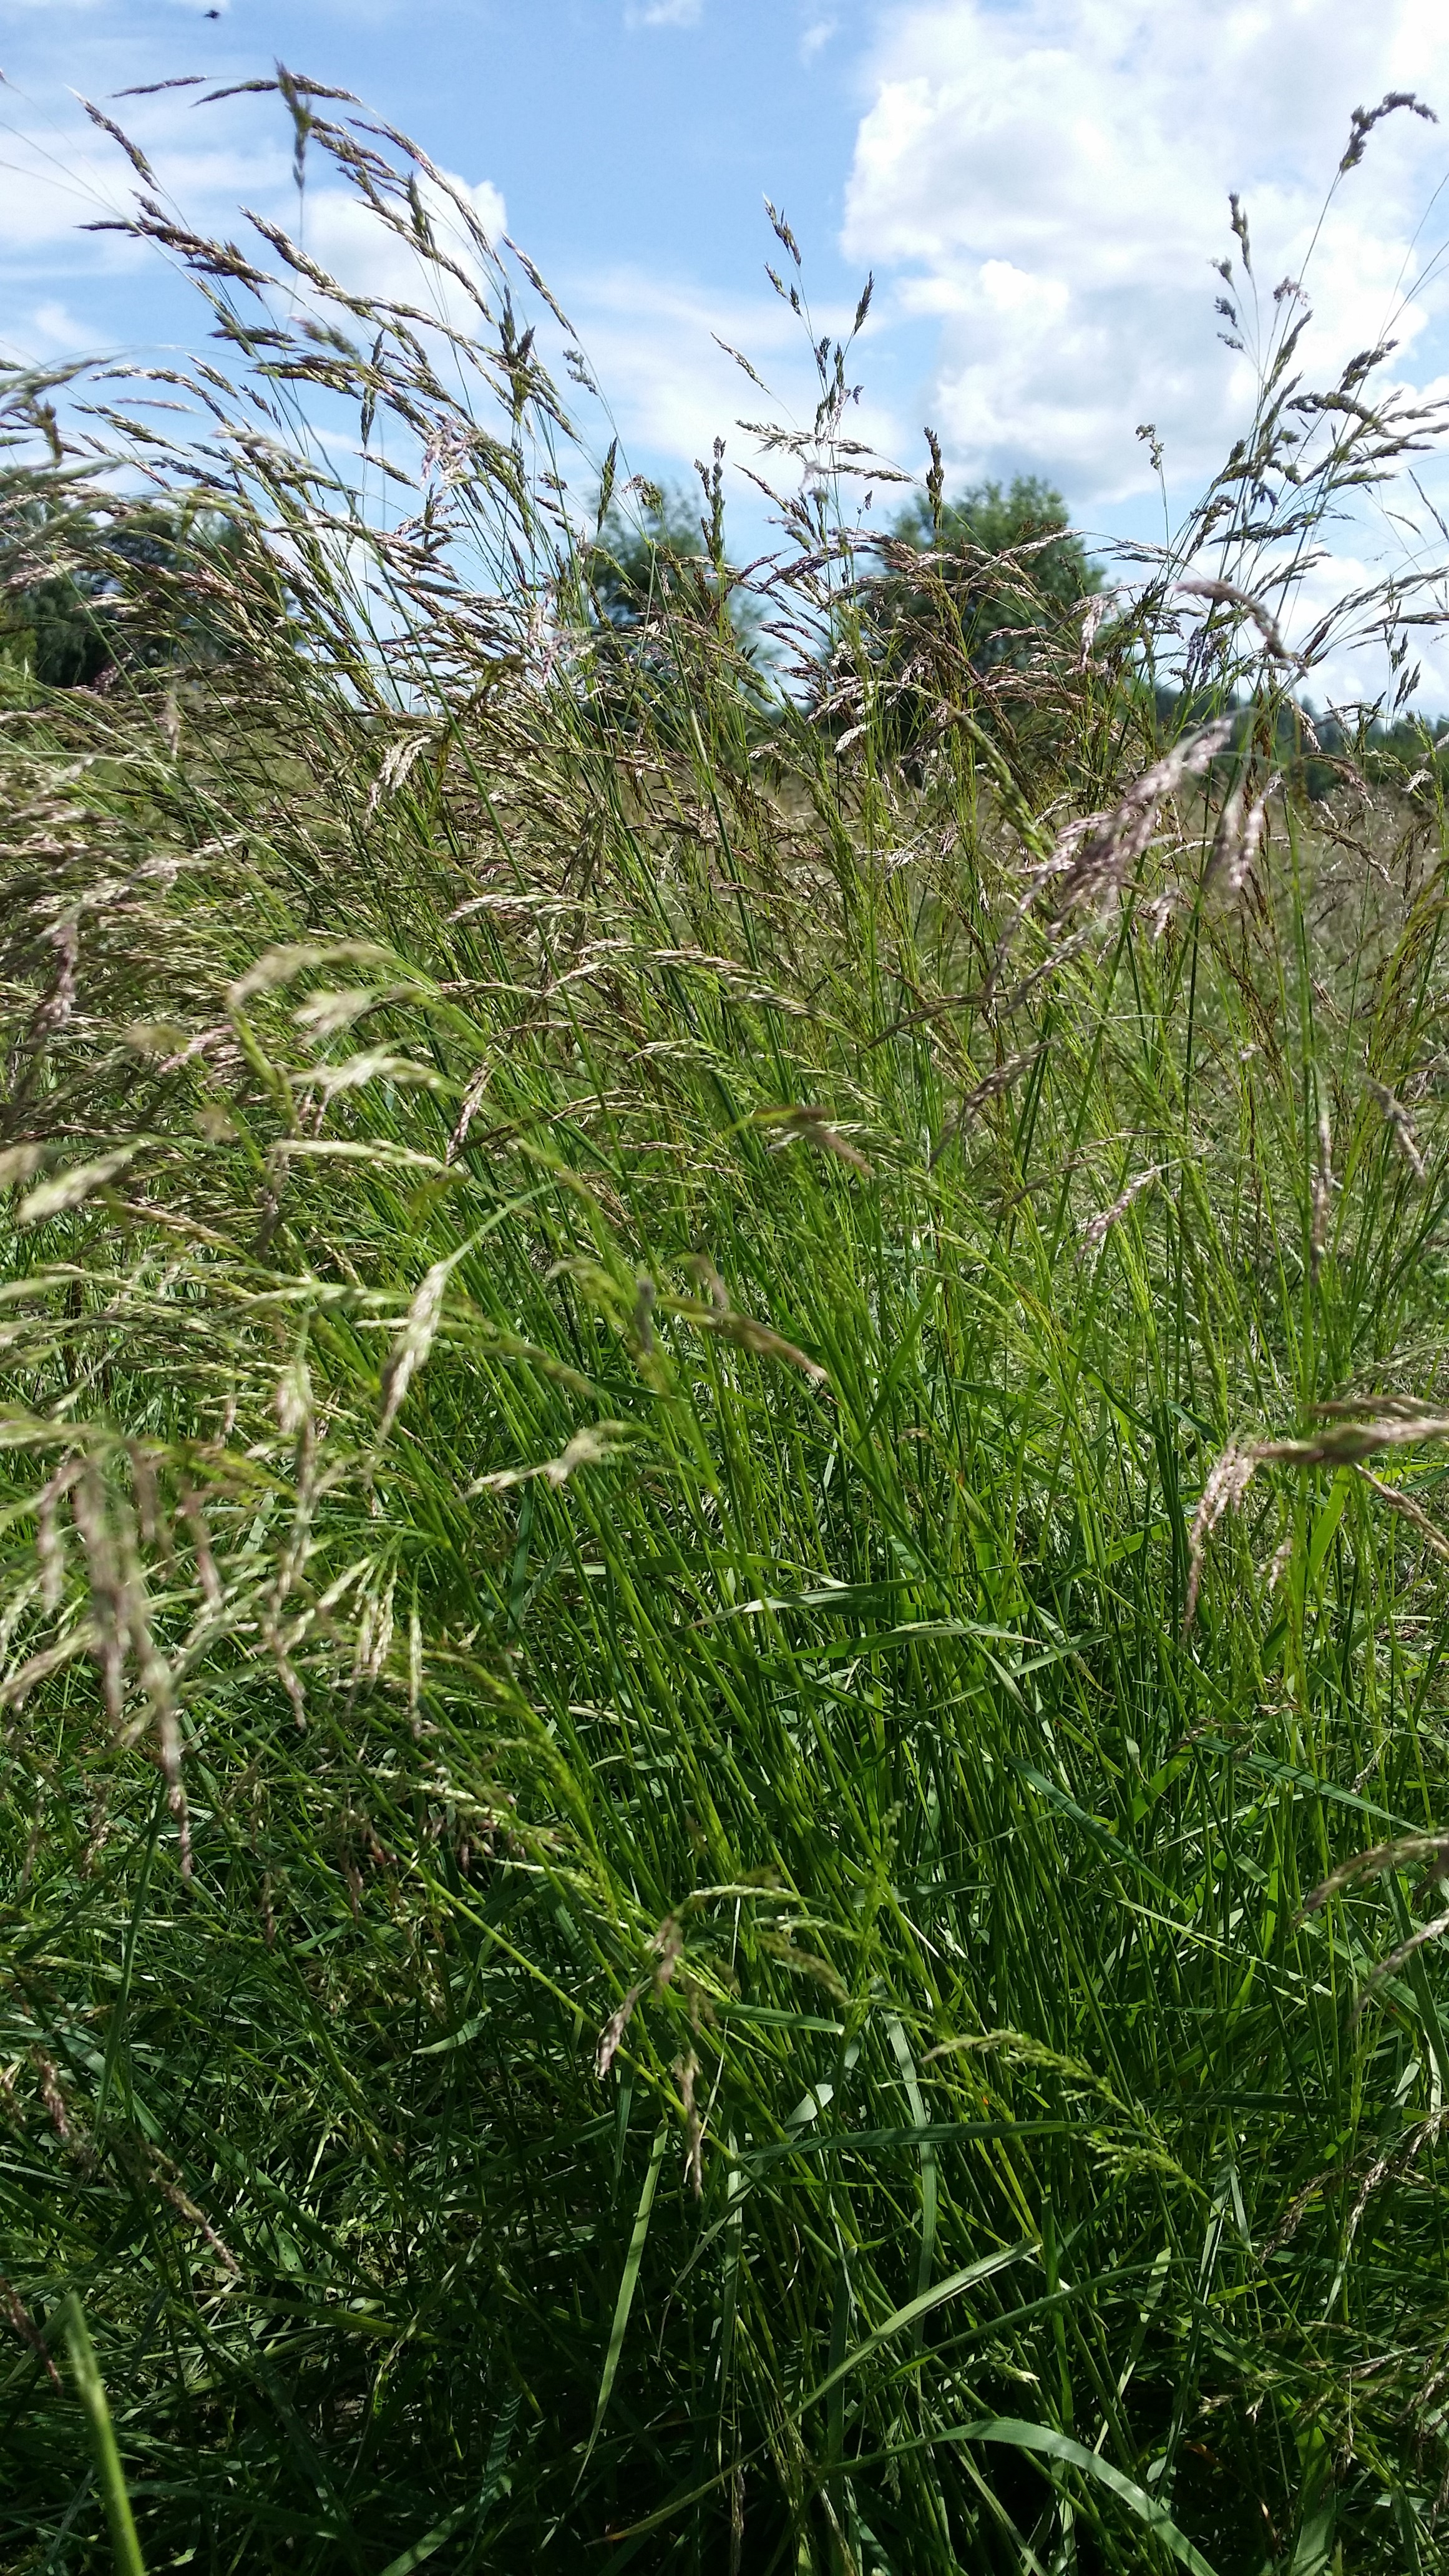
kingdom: Plantae
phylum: Tracheophyta
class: Liliopsida
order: Poales
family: Poaceae
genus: Agrostis
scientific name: Agrostis capillaris
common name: Colonial bentgrass
